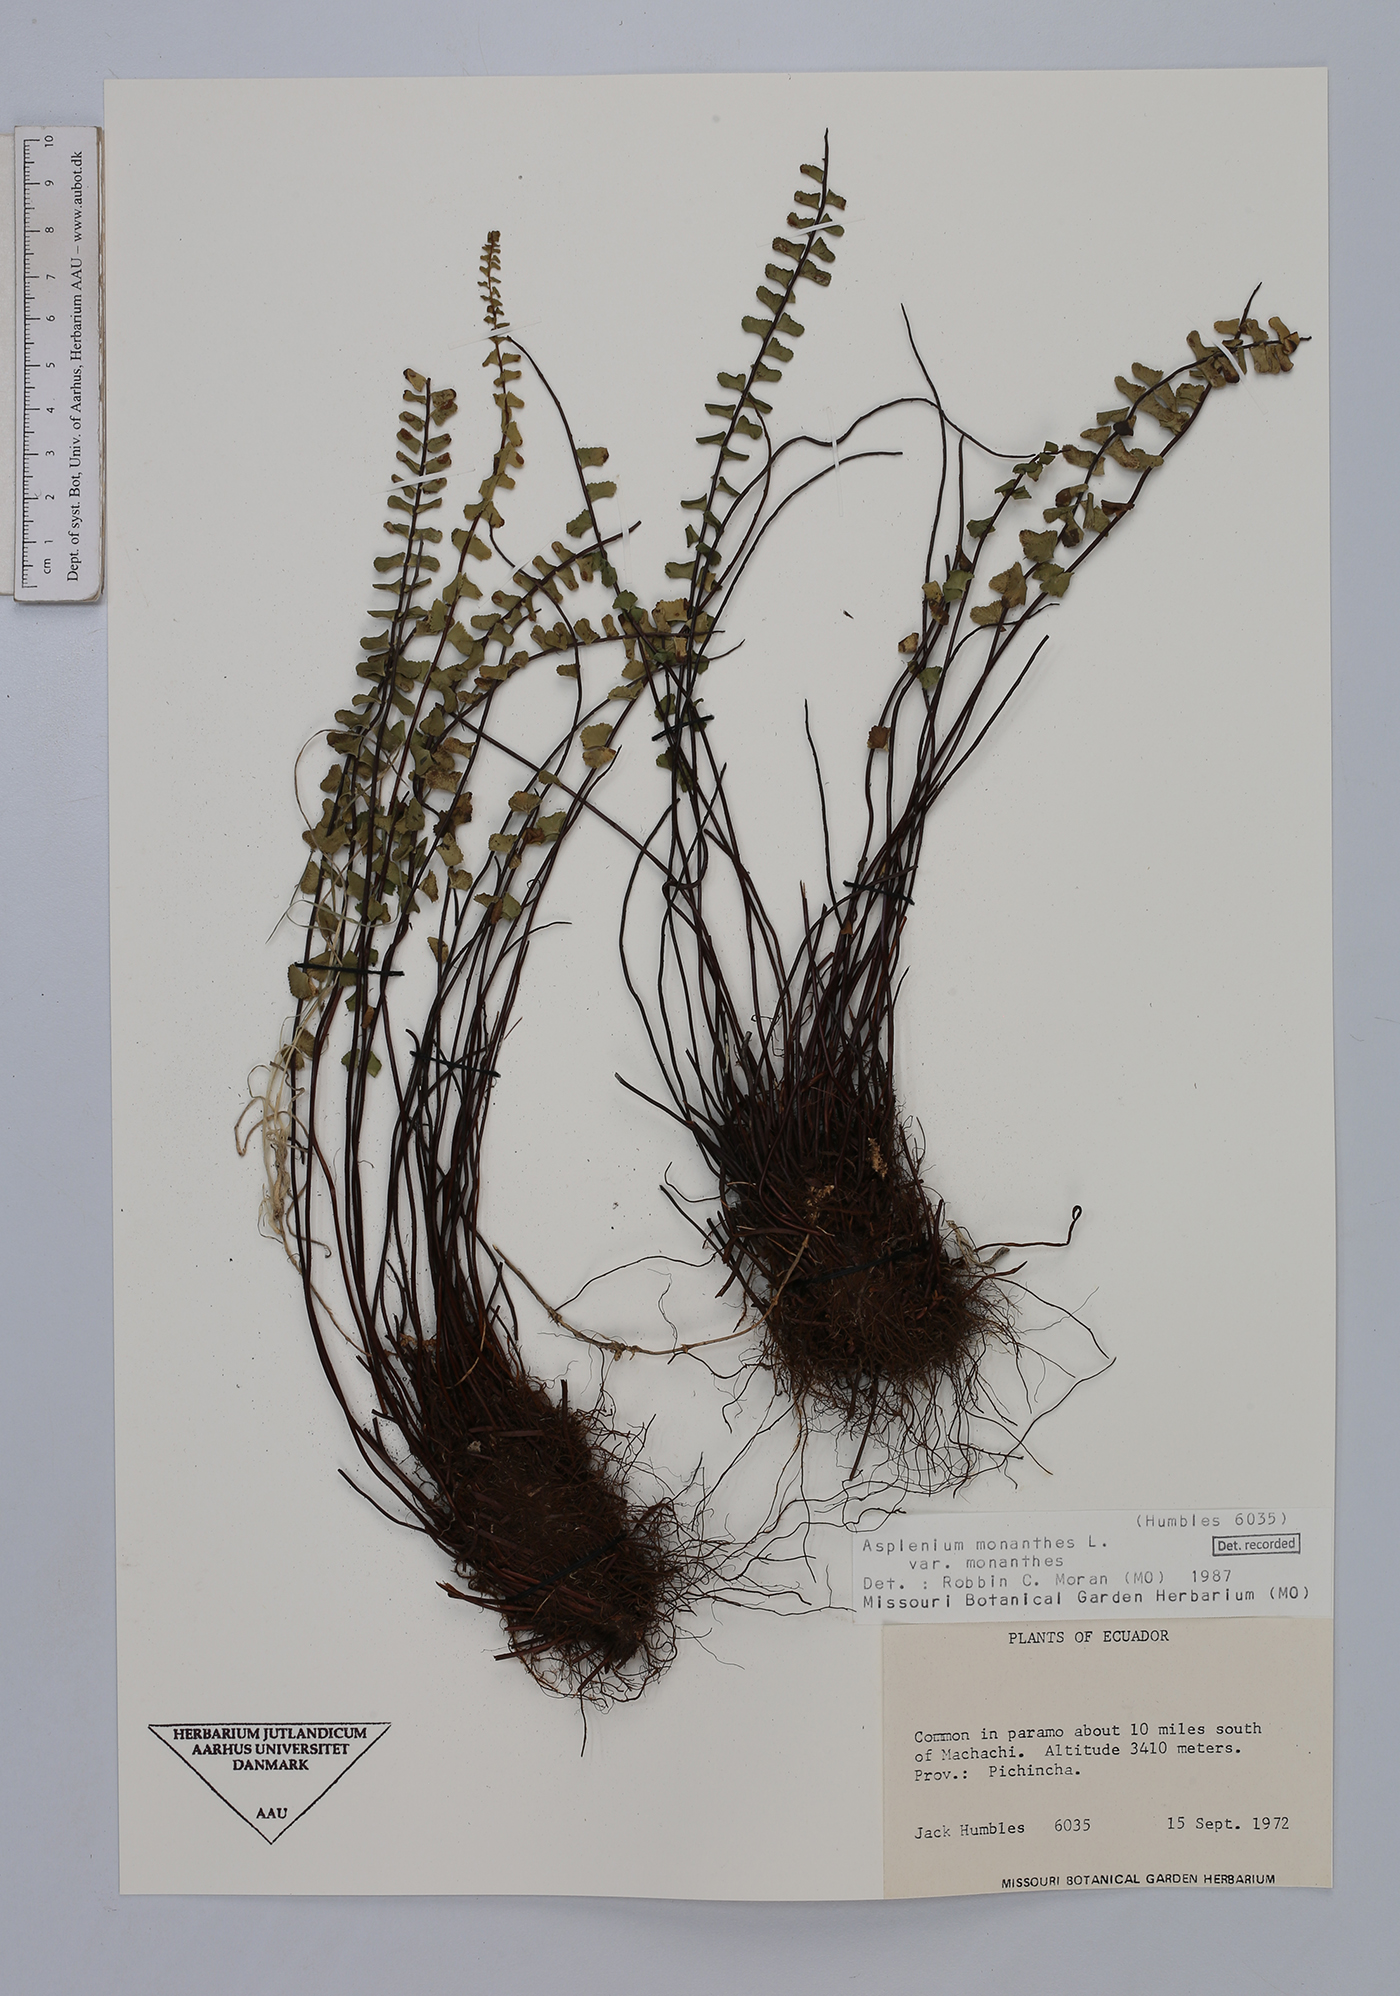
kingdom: Plantae
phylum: Tracheophyta
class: Polypodiopsida
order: Polypodiales
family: Aspleniaceae
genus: Asplenium
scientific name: Asplenium monanthes
